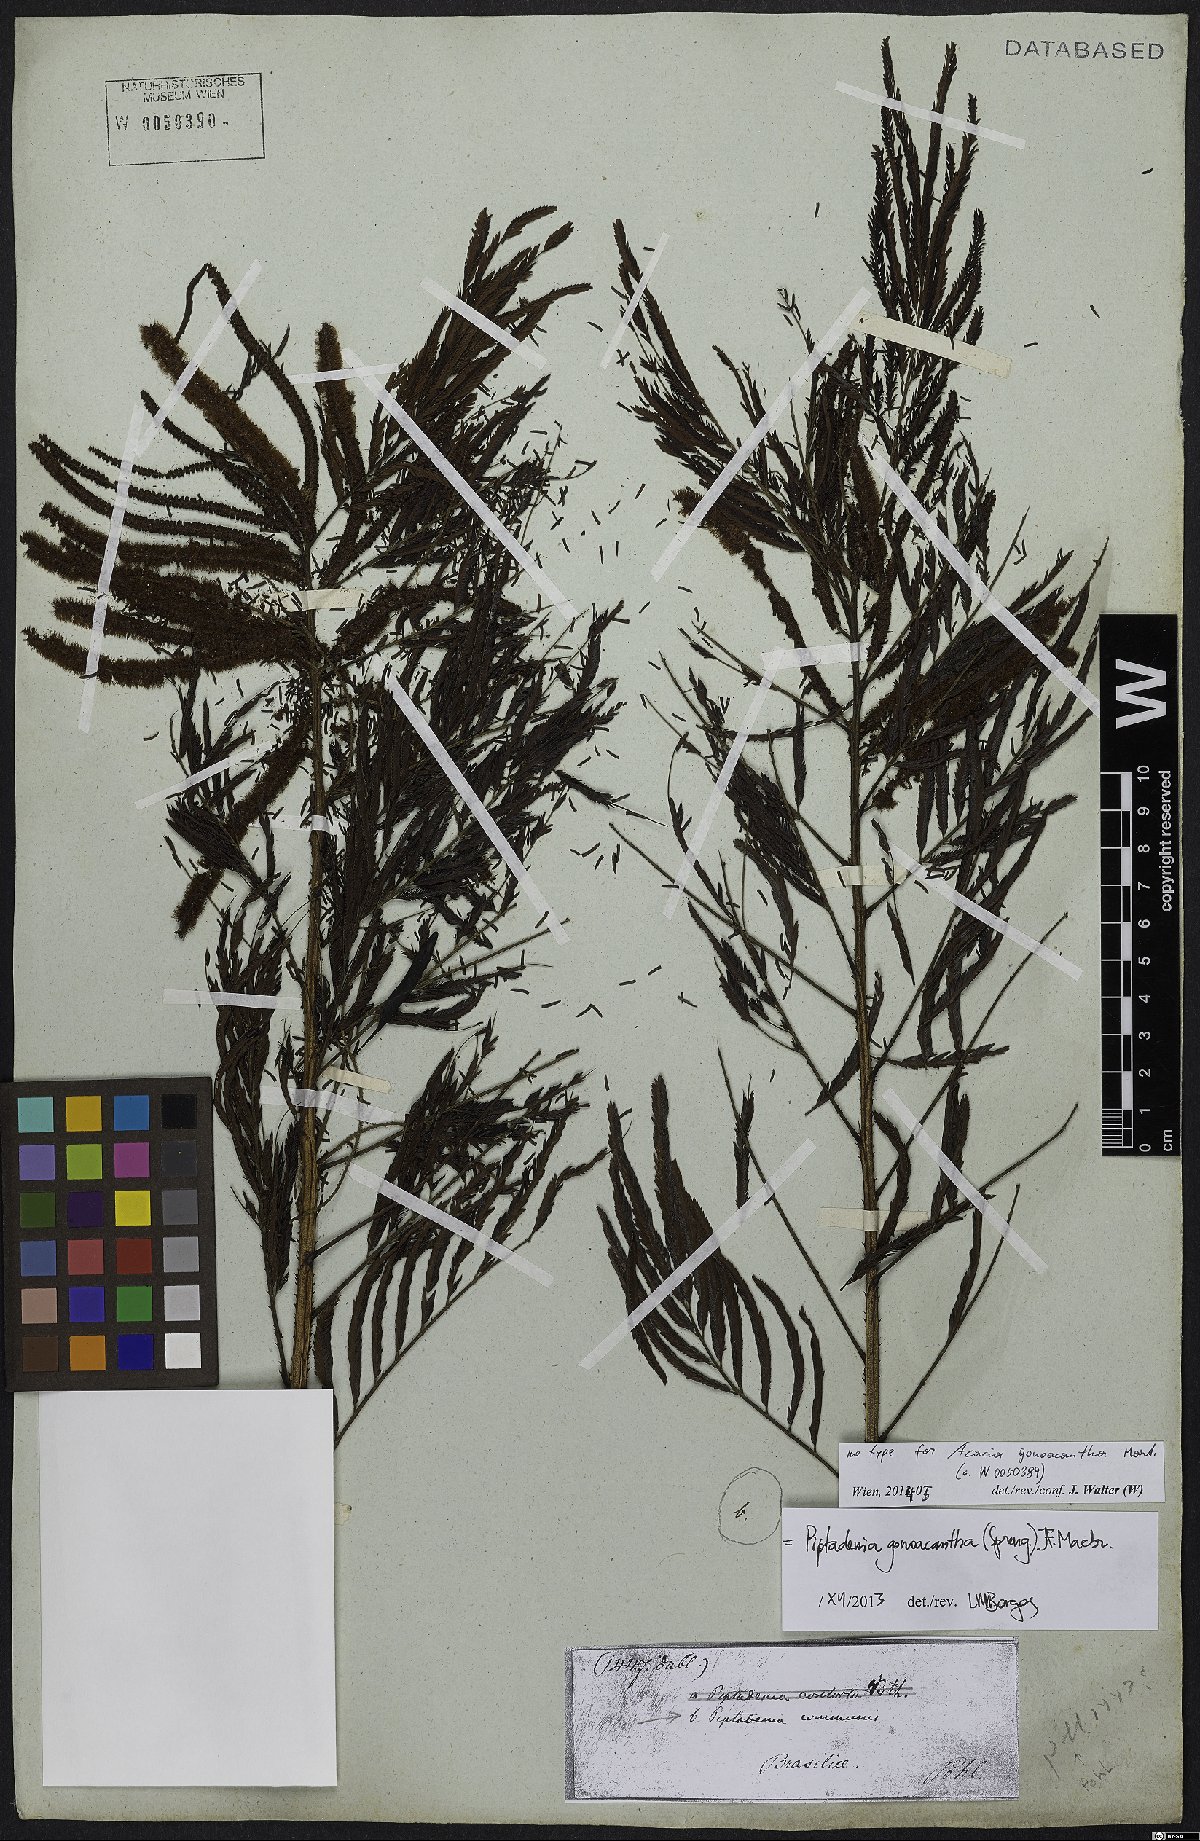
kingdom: Plantae
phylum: Tracheophyta
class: Magnoliopsida
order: Fabales
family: Fabaceae
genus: Piptadenia
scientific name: Piptadenia gonoacantha
